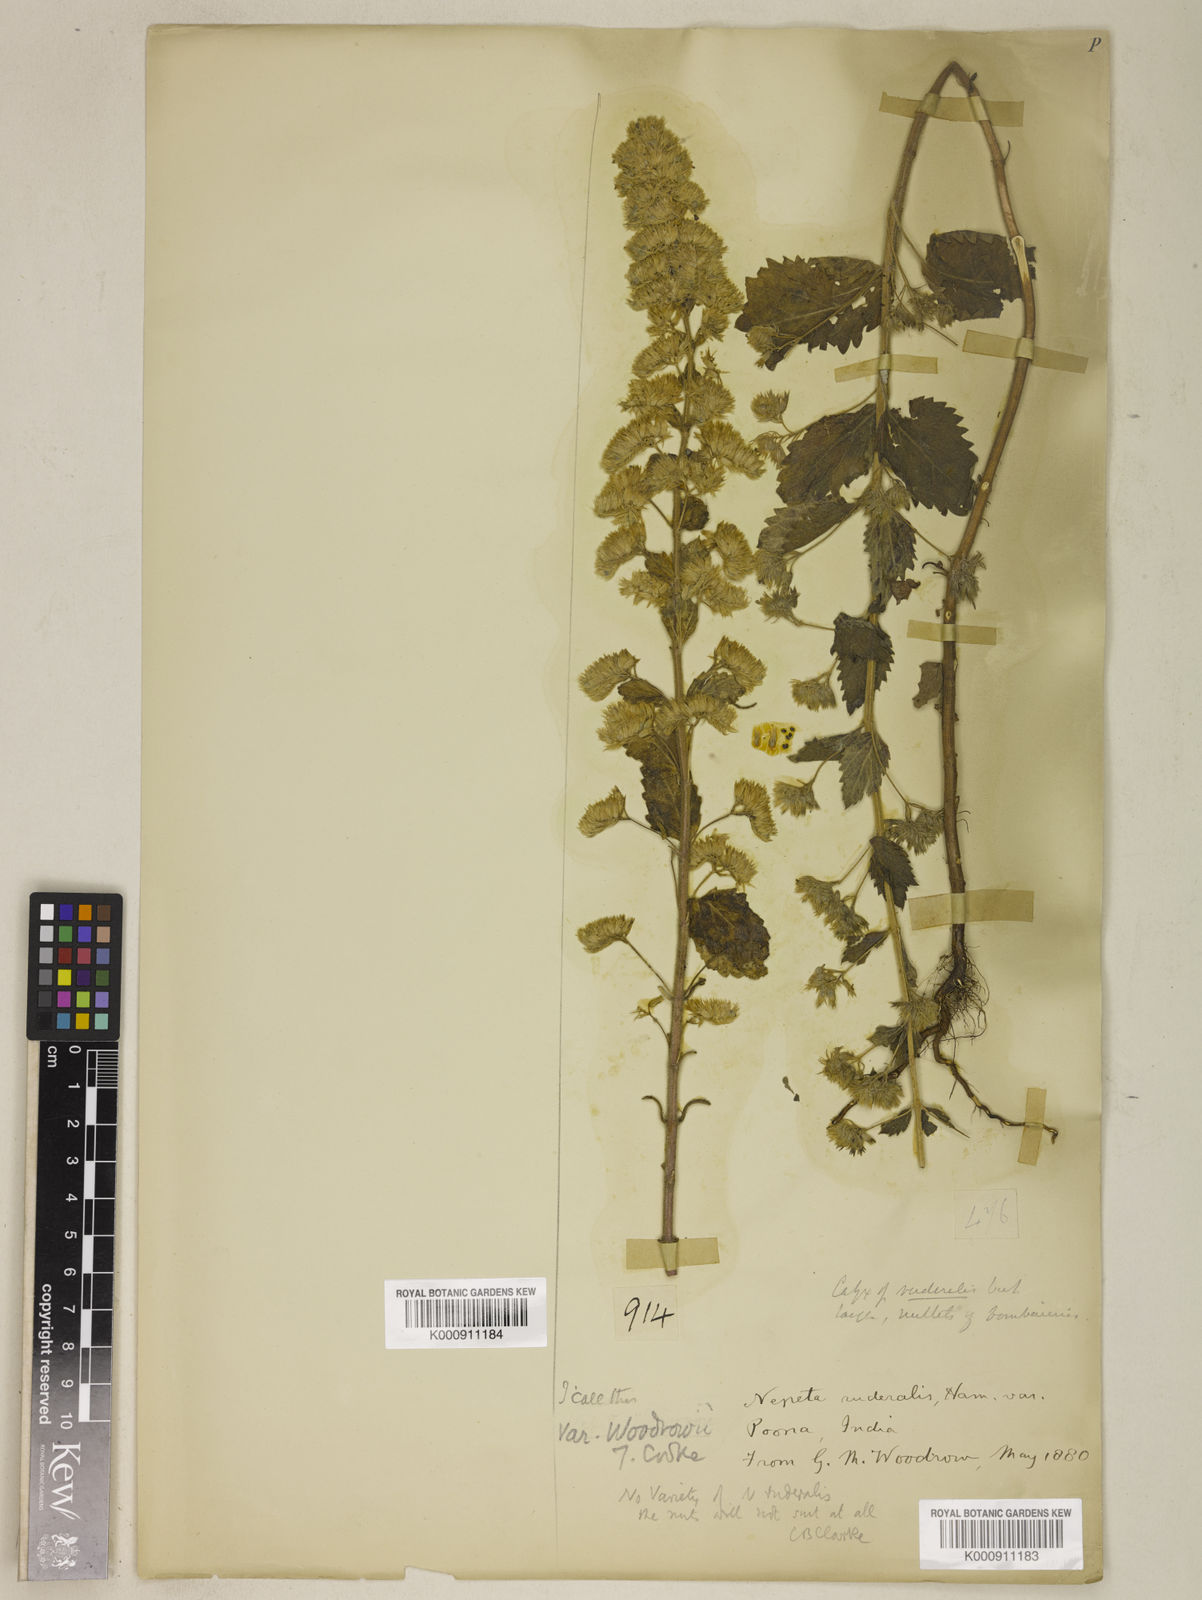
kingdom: Plantae
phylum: Tracheophyta
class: Magnoliopsida
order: Lamiales
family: Lamiaceae
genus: Nepeta
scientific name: Nepeta hindostana
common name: Indian catnip
